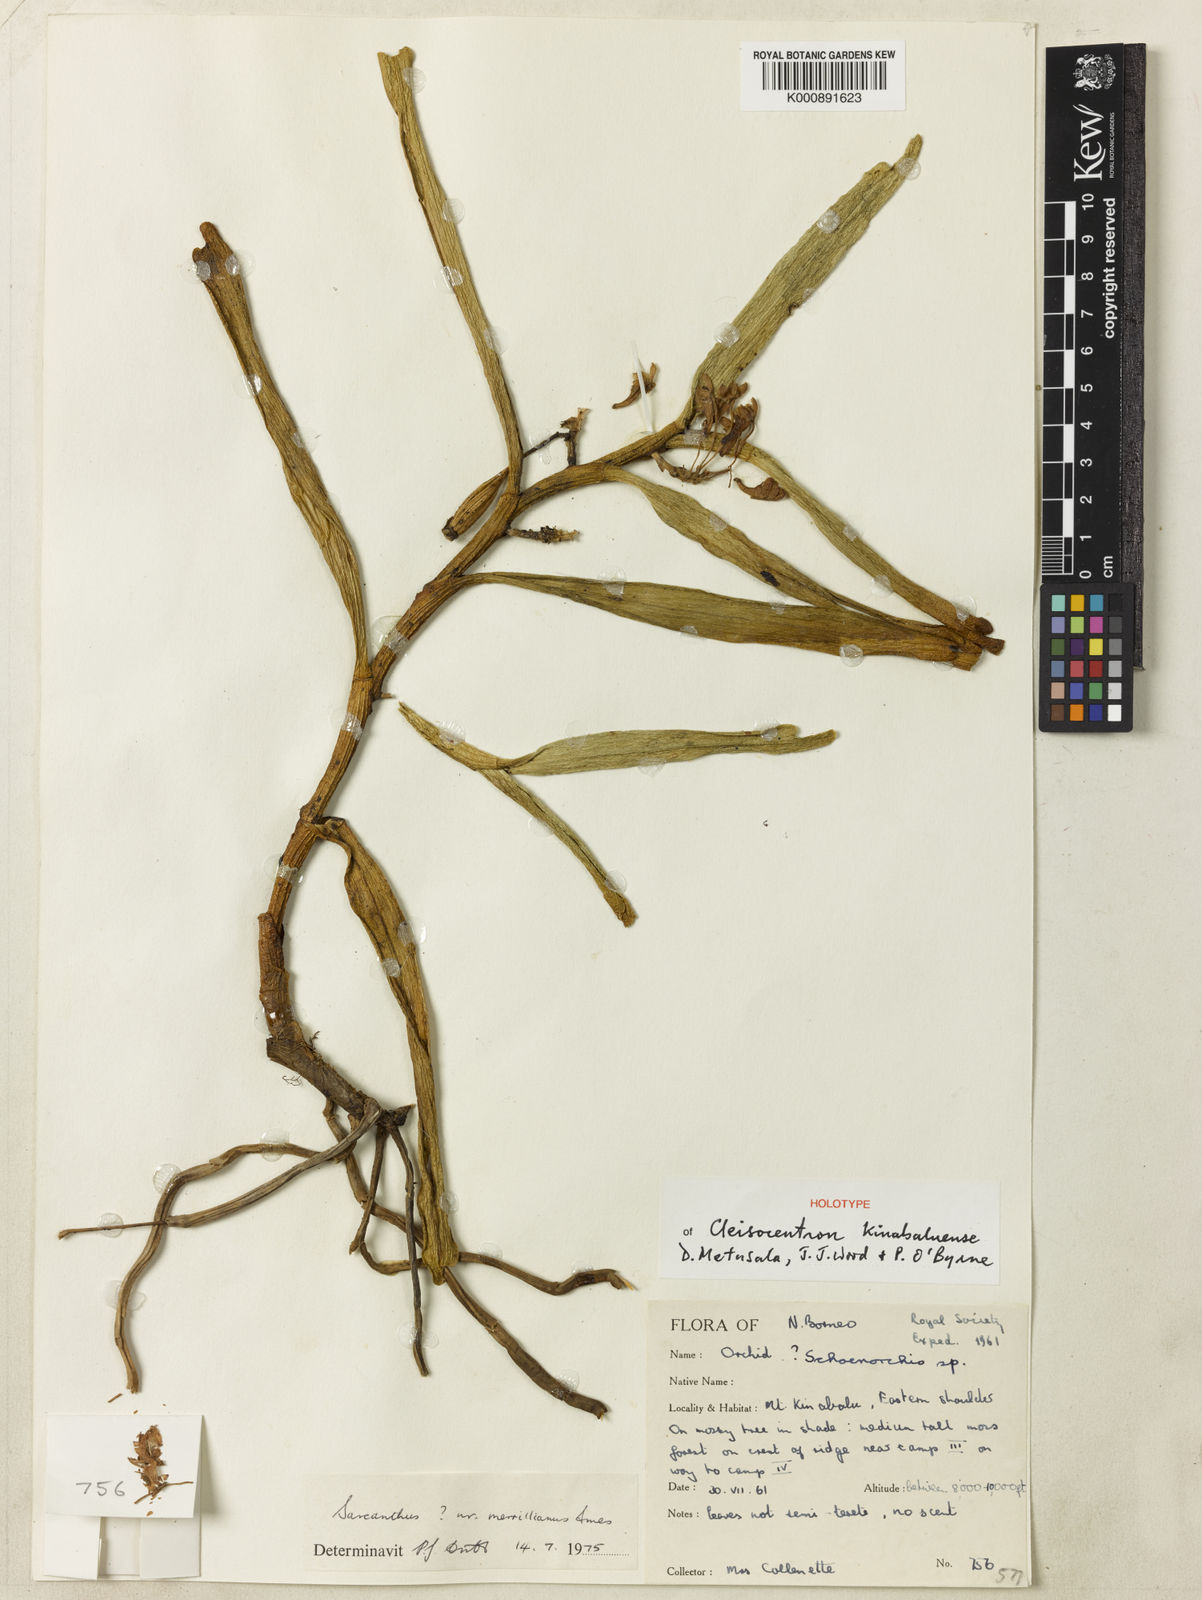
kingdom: Plantae
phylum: Tracheophyta
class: Liliopsida
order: Asparagales
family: Orchidaceae
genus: Ascocentrum
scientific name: Ascocentrum
